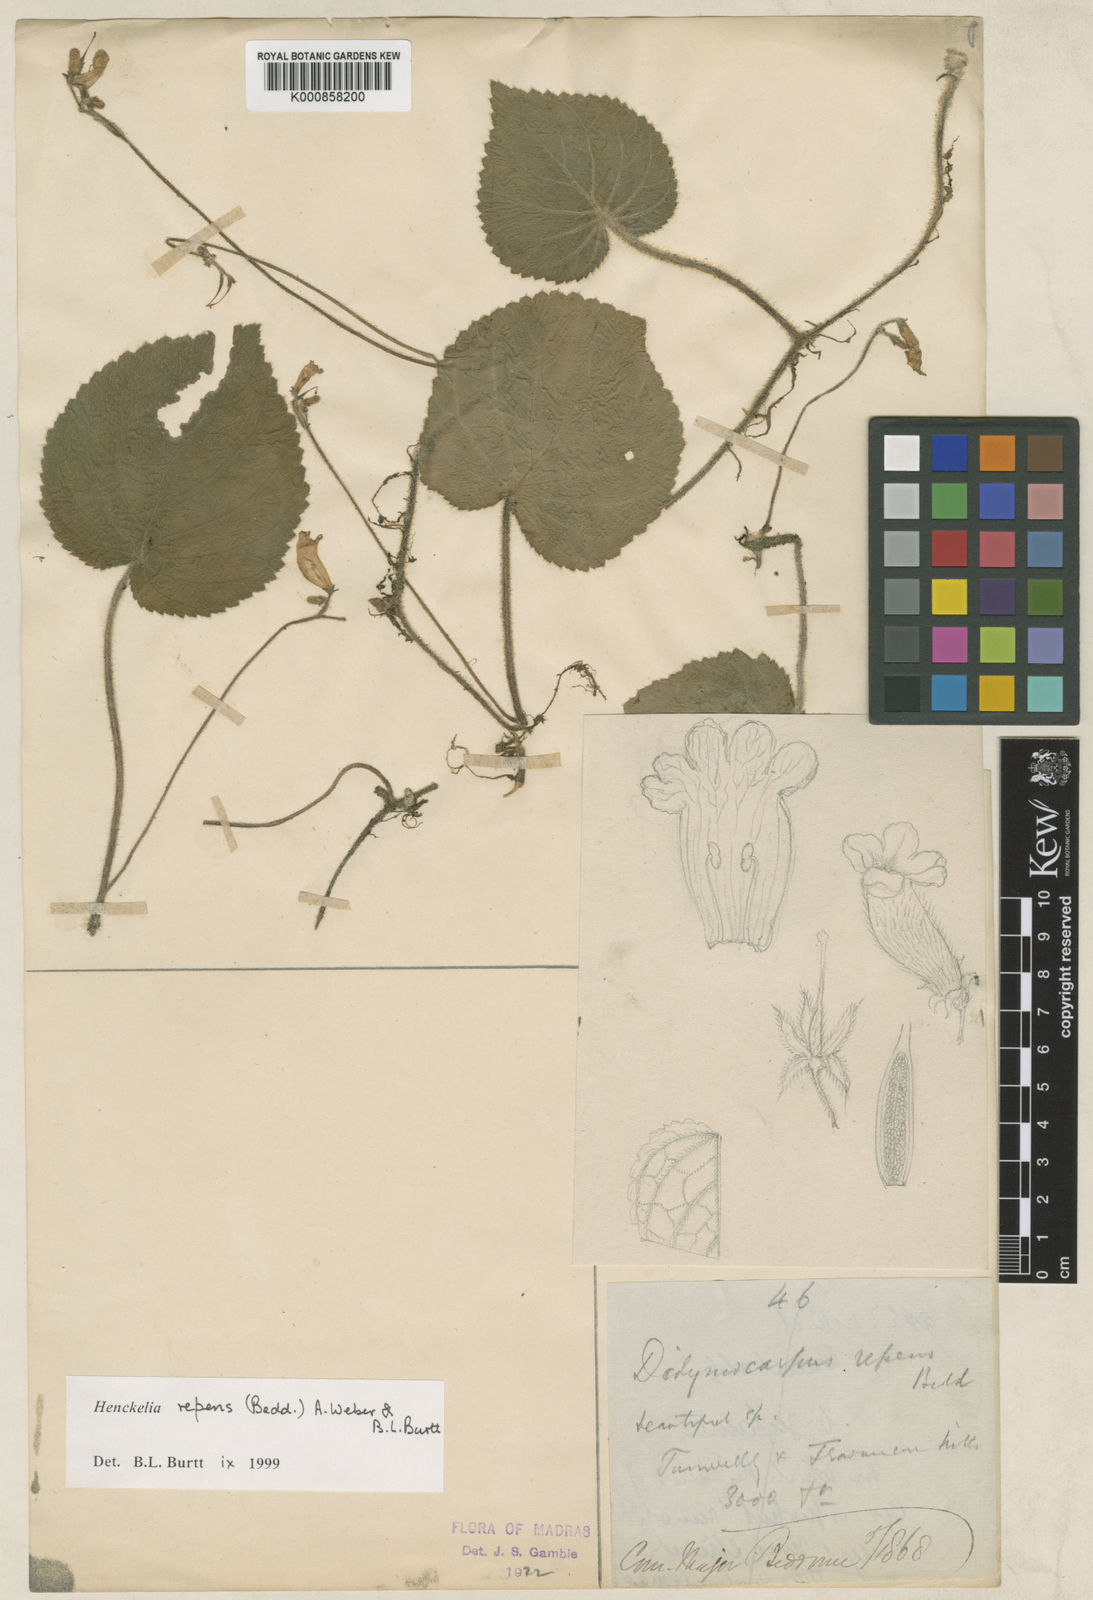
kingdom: Plantae
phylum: Tracheophyta
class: Magnoliopsida
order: Lamiales
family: Gesneriaceae
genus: Henckelia
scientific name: Henckelia repens
